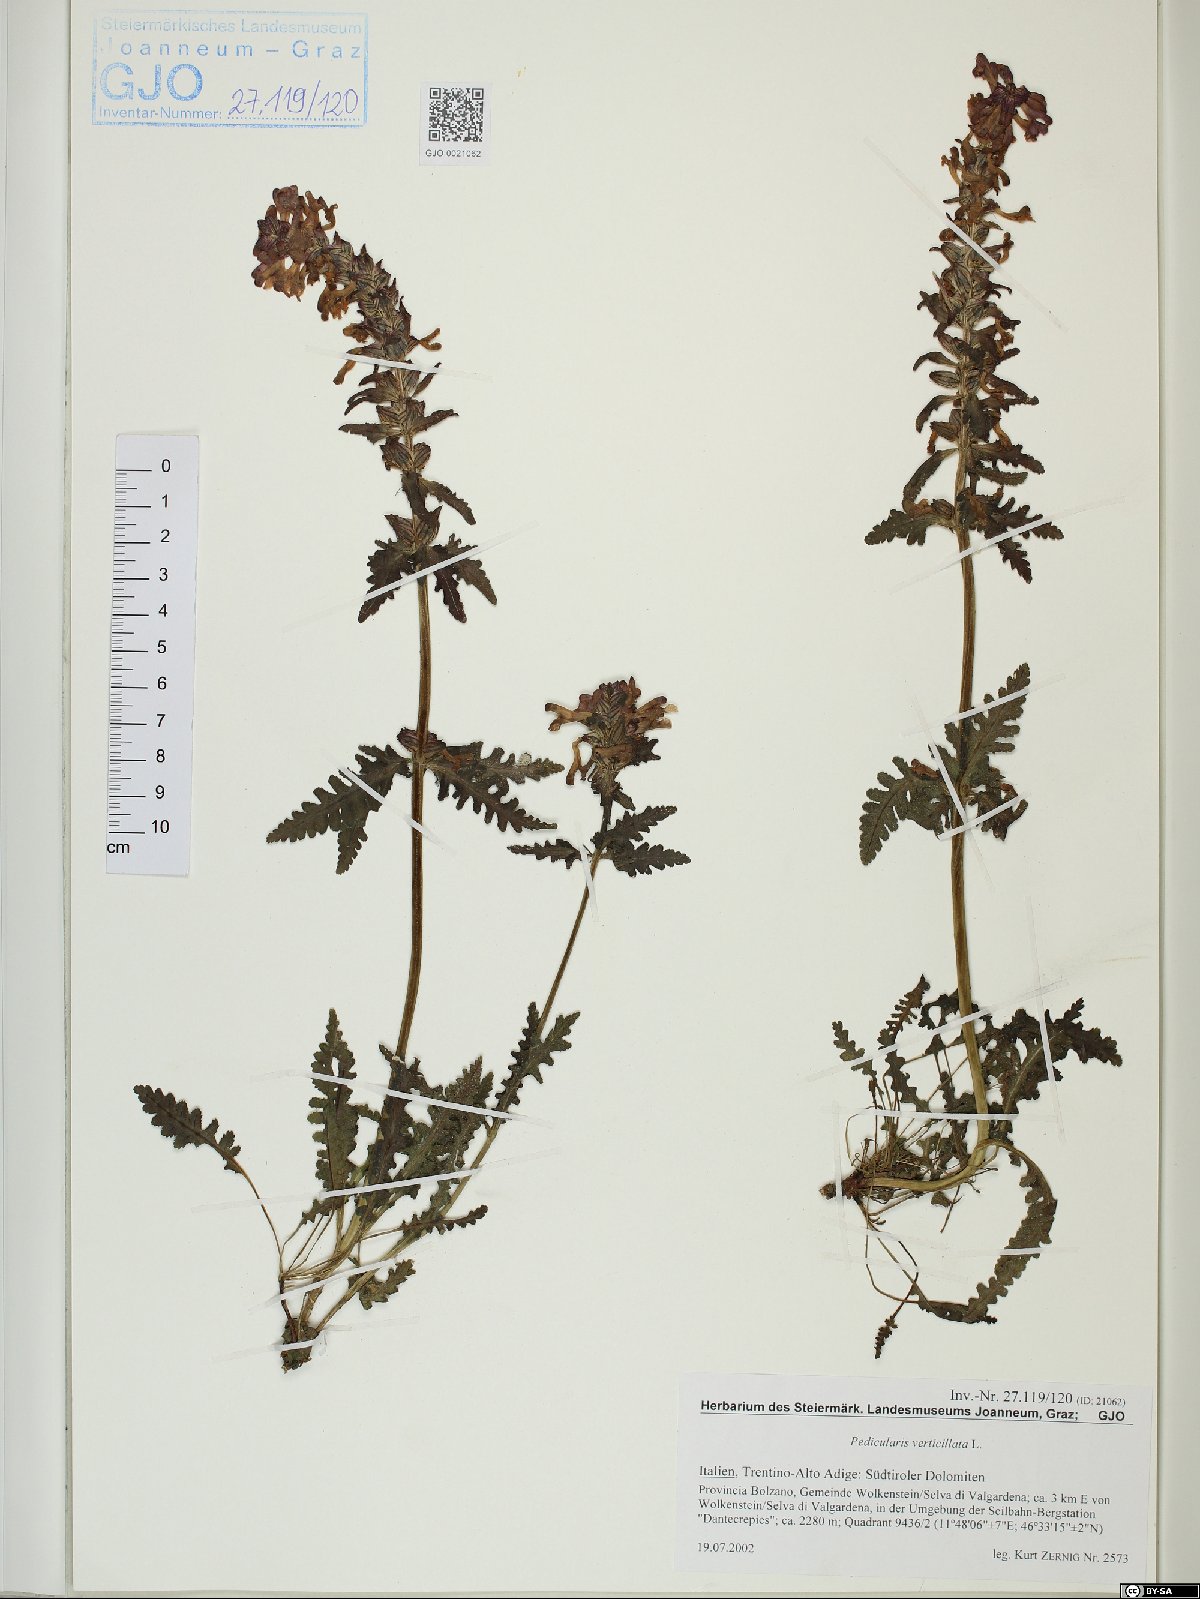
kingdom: Plantae
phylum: Tracheophyta
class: Magnoliopsida
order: Lamiales
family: Orobanchaceae
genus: Pedicularis
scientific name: Pedicularis verticillata
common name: Whorled lousewort
